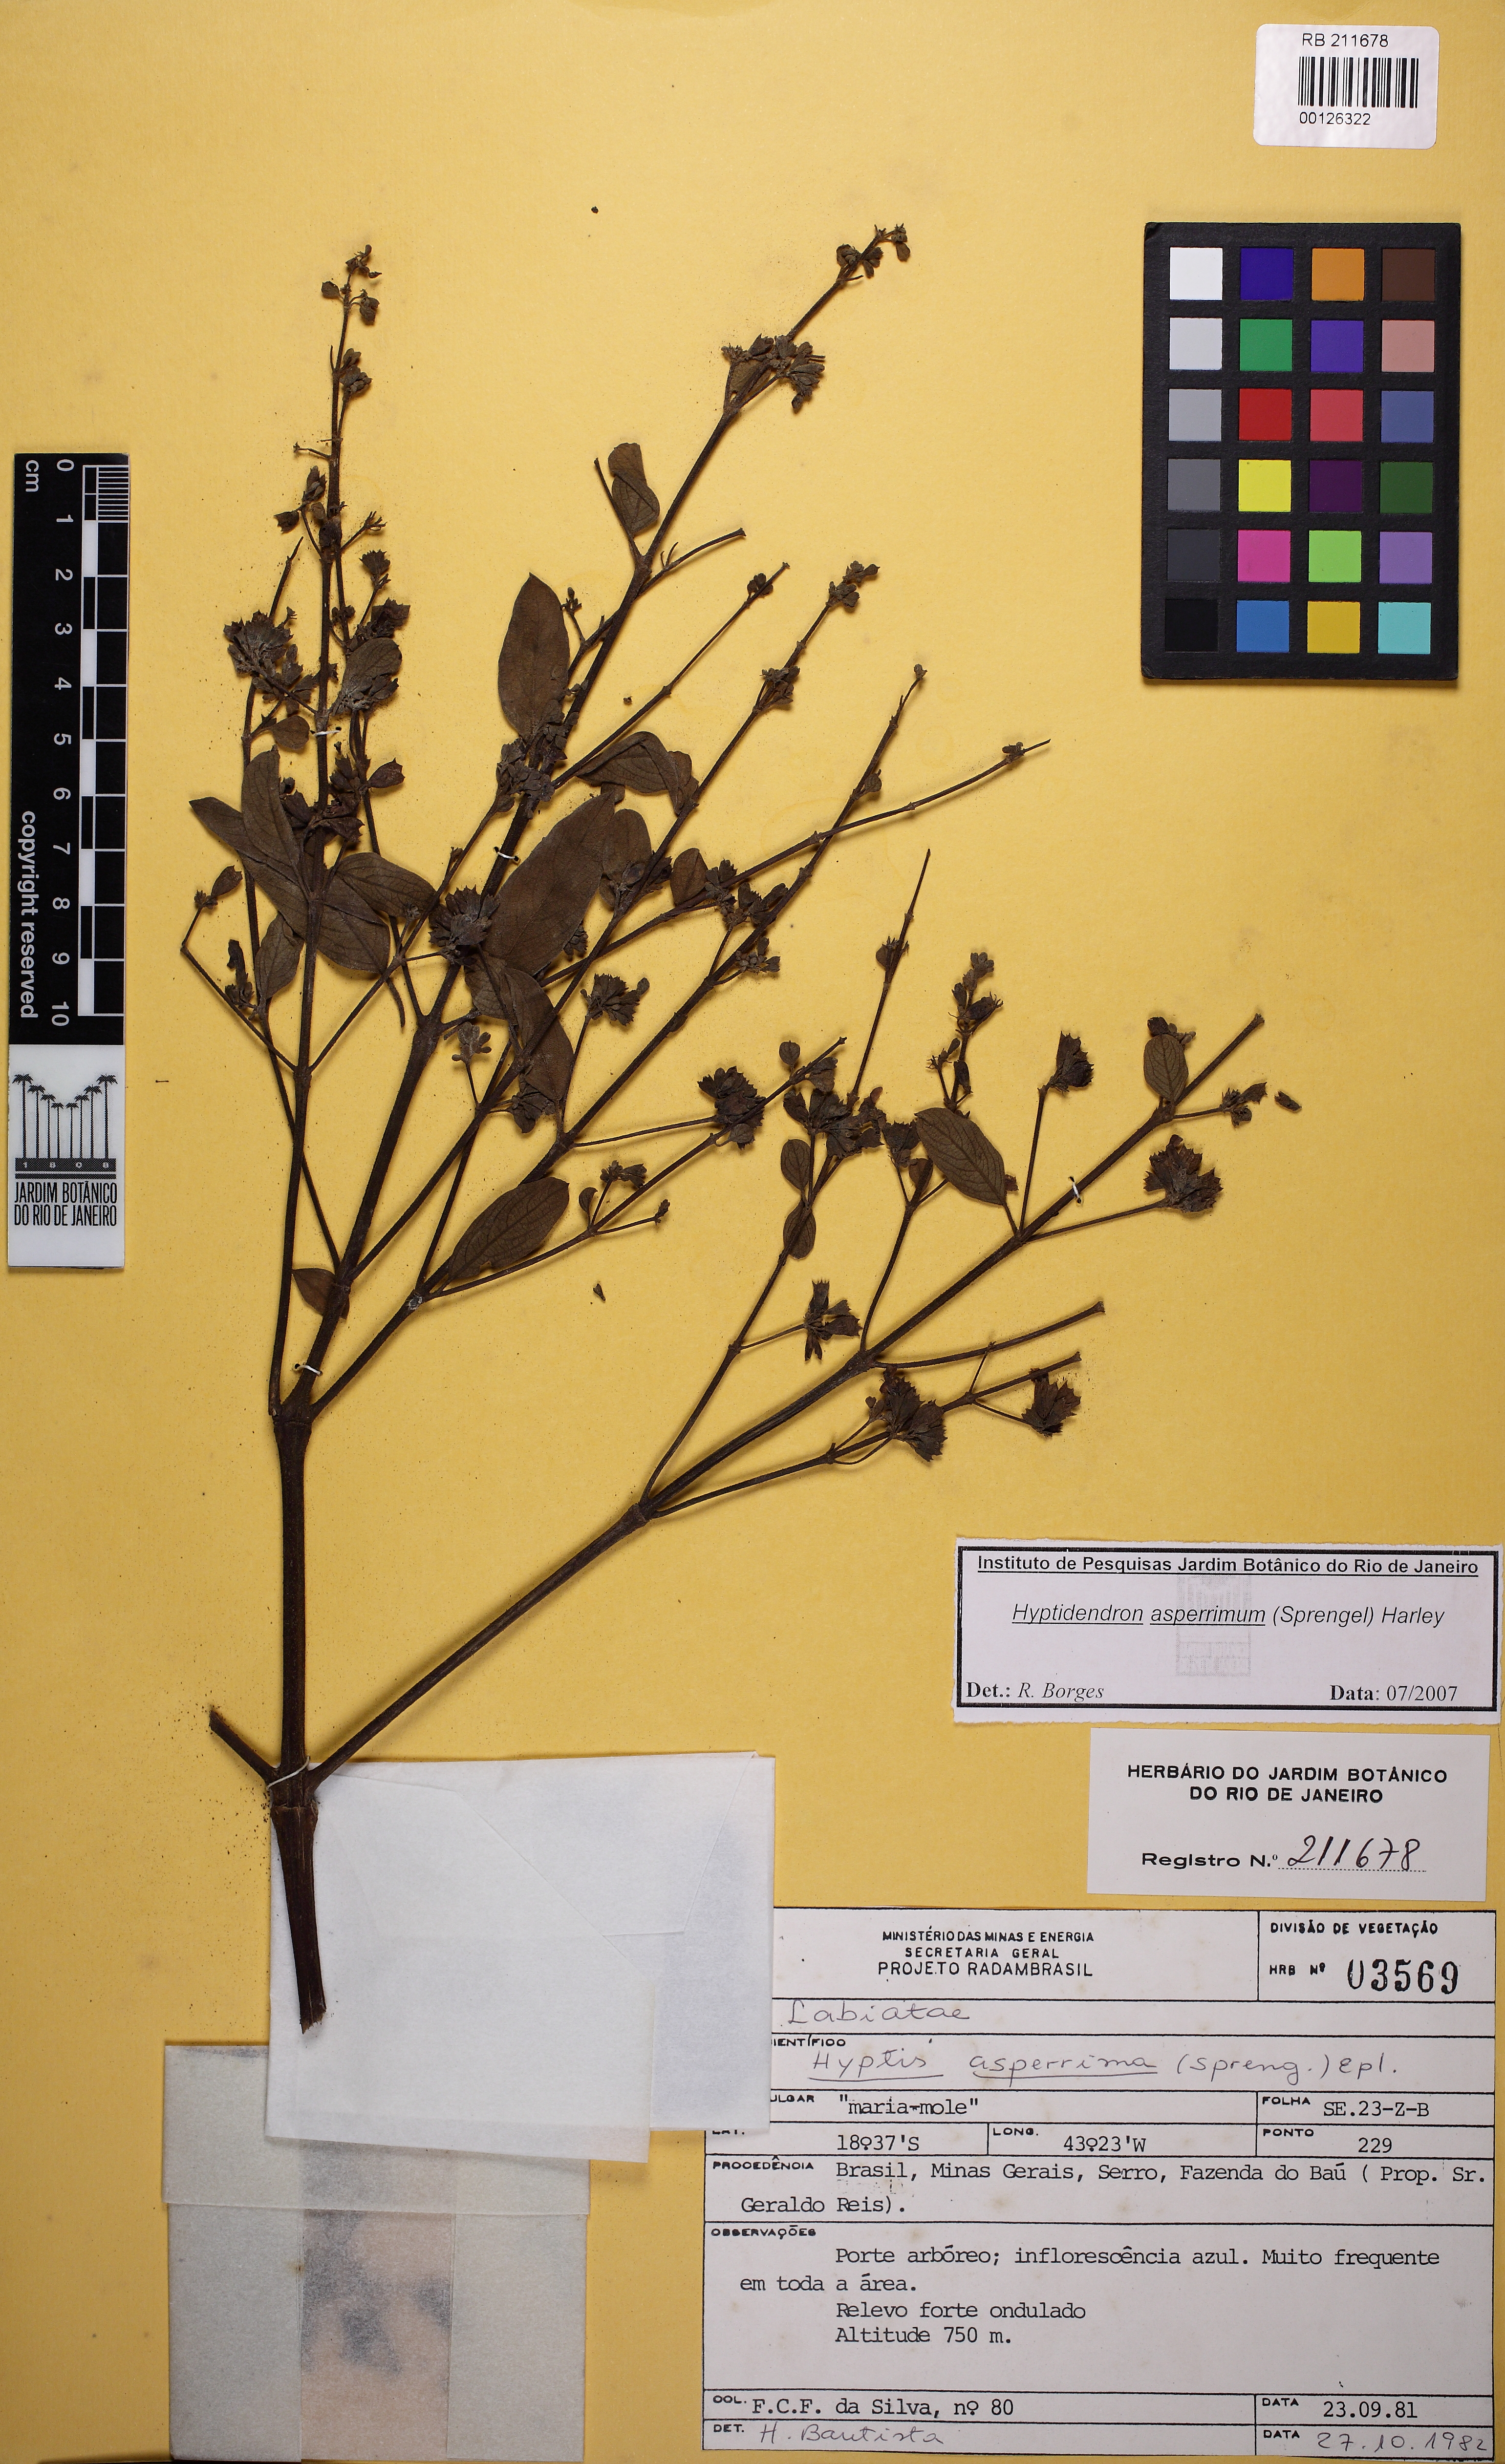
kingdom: Plantae
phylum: Tracheophyta
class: Magnoliopsida
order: Lamiales
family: Lamiaceae
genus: Hyptidendron
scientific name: Hyptidendron asperrimum
